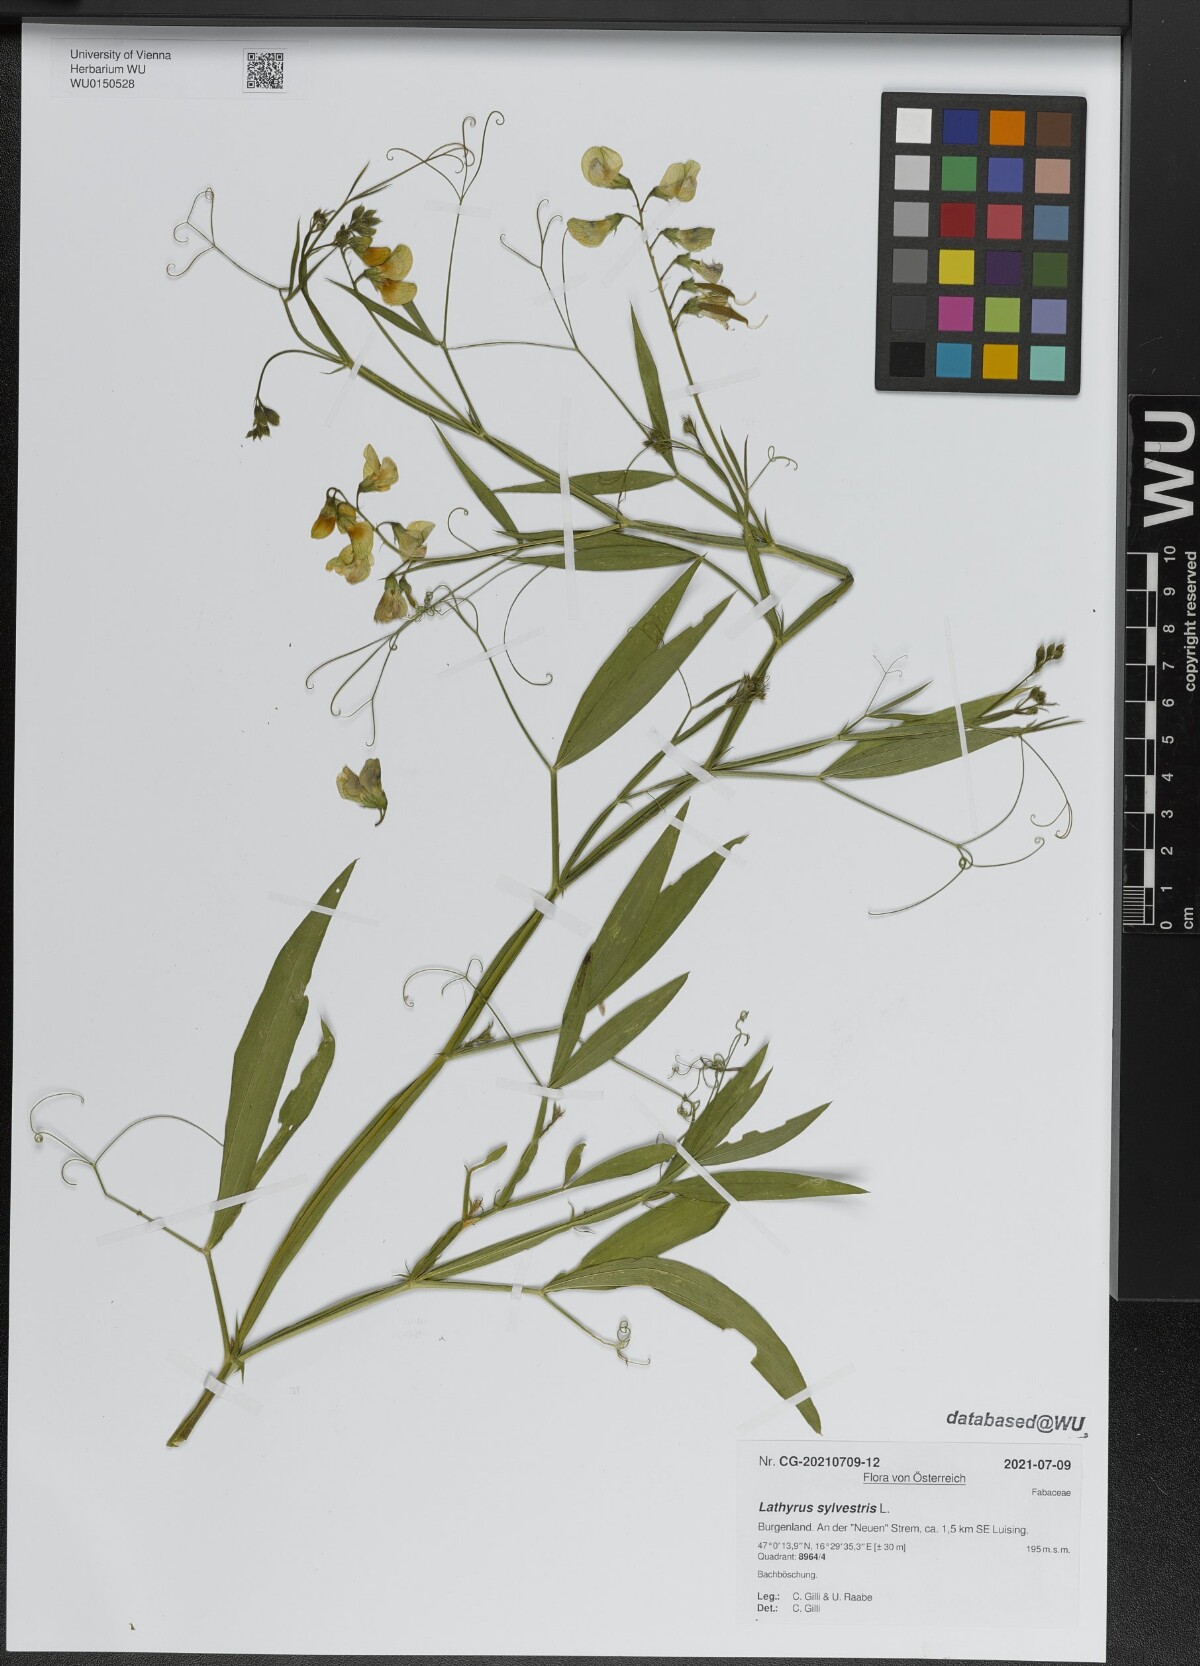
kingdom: Plantae
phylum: Tracheophyta
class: Magnoliopsida
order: Fabales
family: Fabaceae
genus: Lathyrus
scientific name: Lathyrus sylvestris
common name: Flat pea
